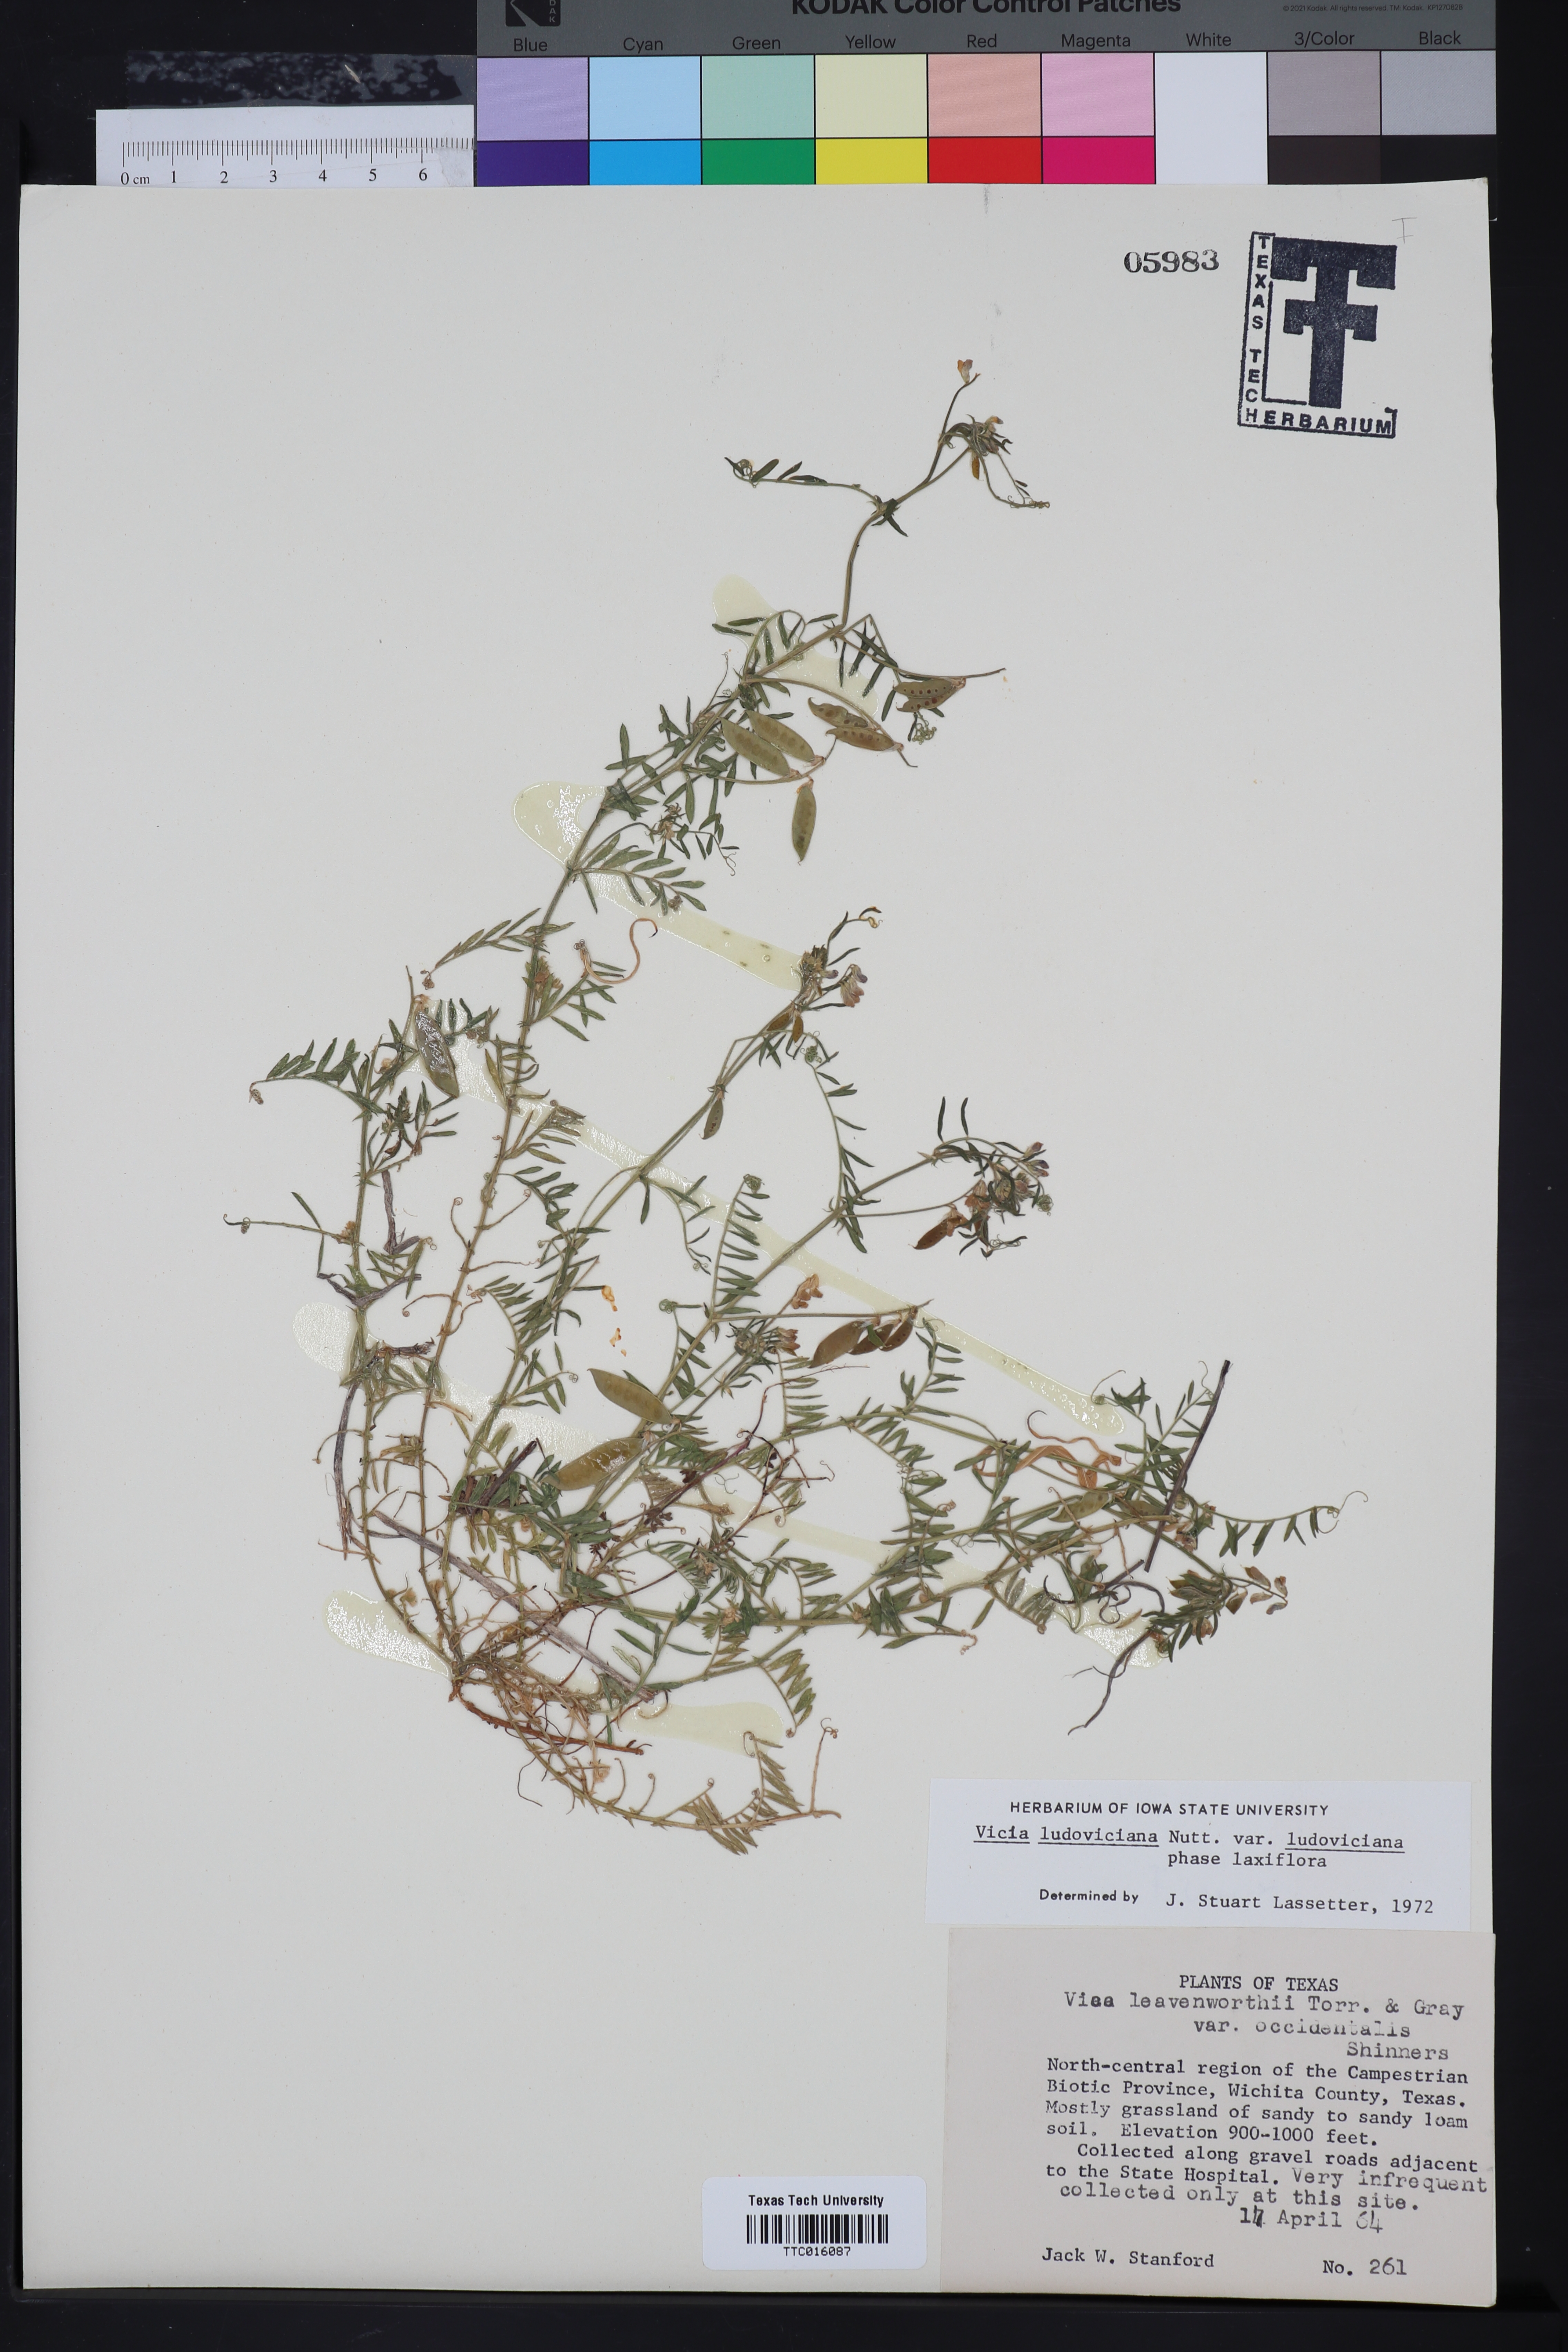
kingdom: Plantae
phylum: Tracheophyta
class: Magnoliopsida
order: Fabales
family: Fabaceae
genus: Vicia
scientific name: Vicia ludoviciana
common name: Louisiana vetch
